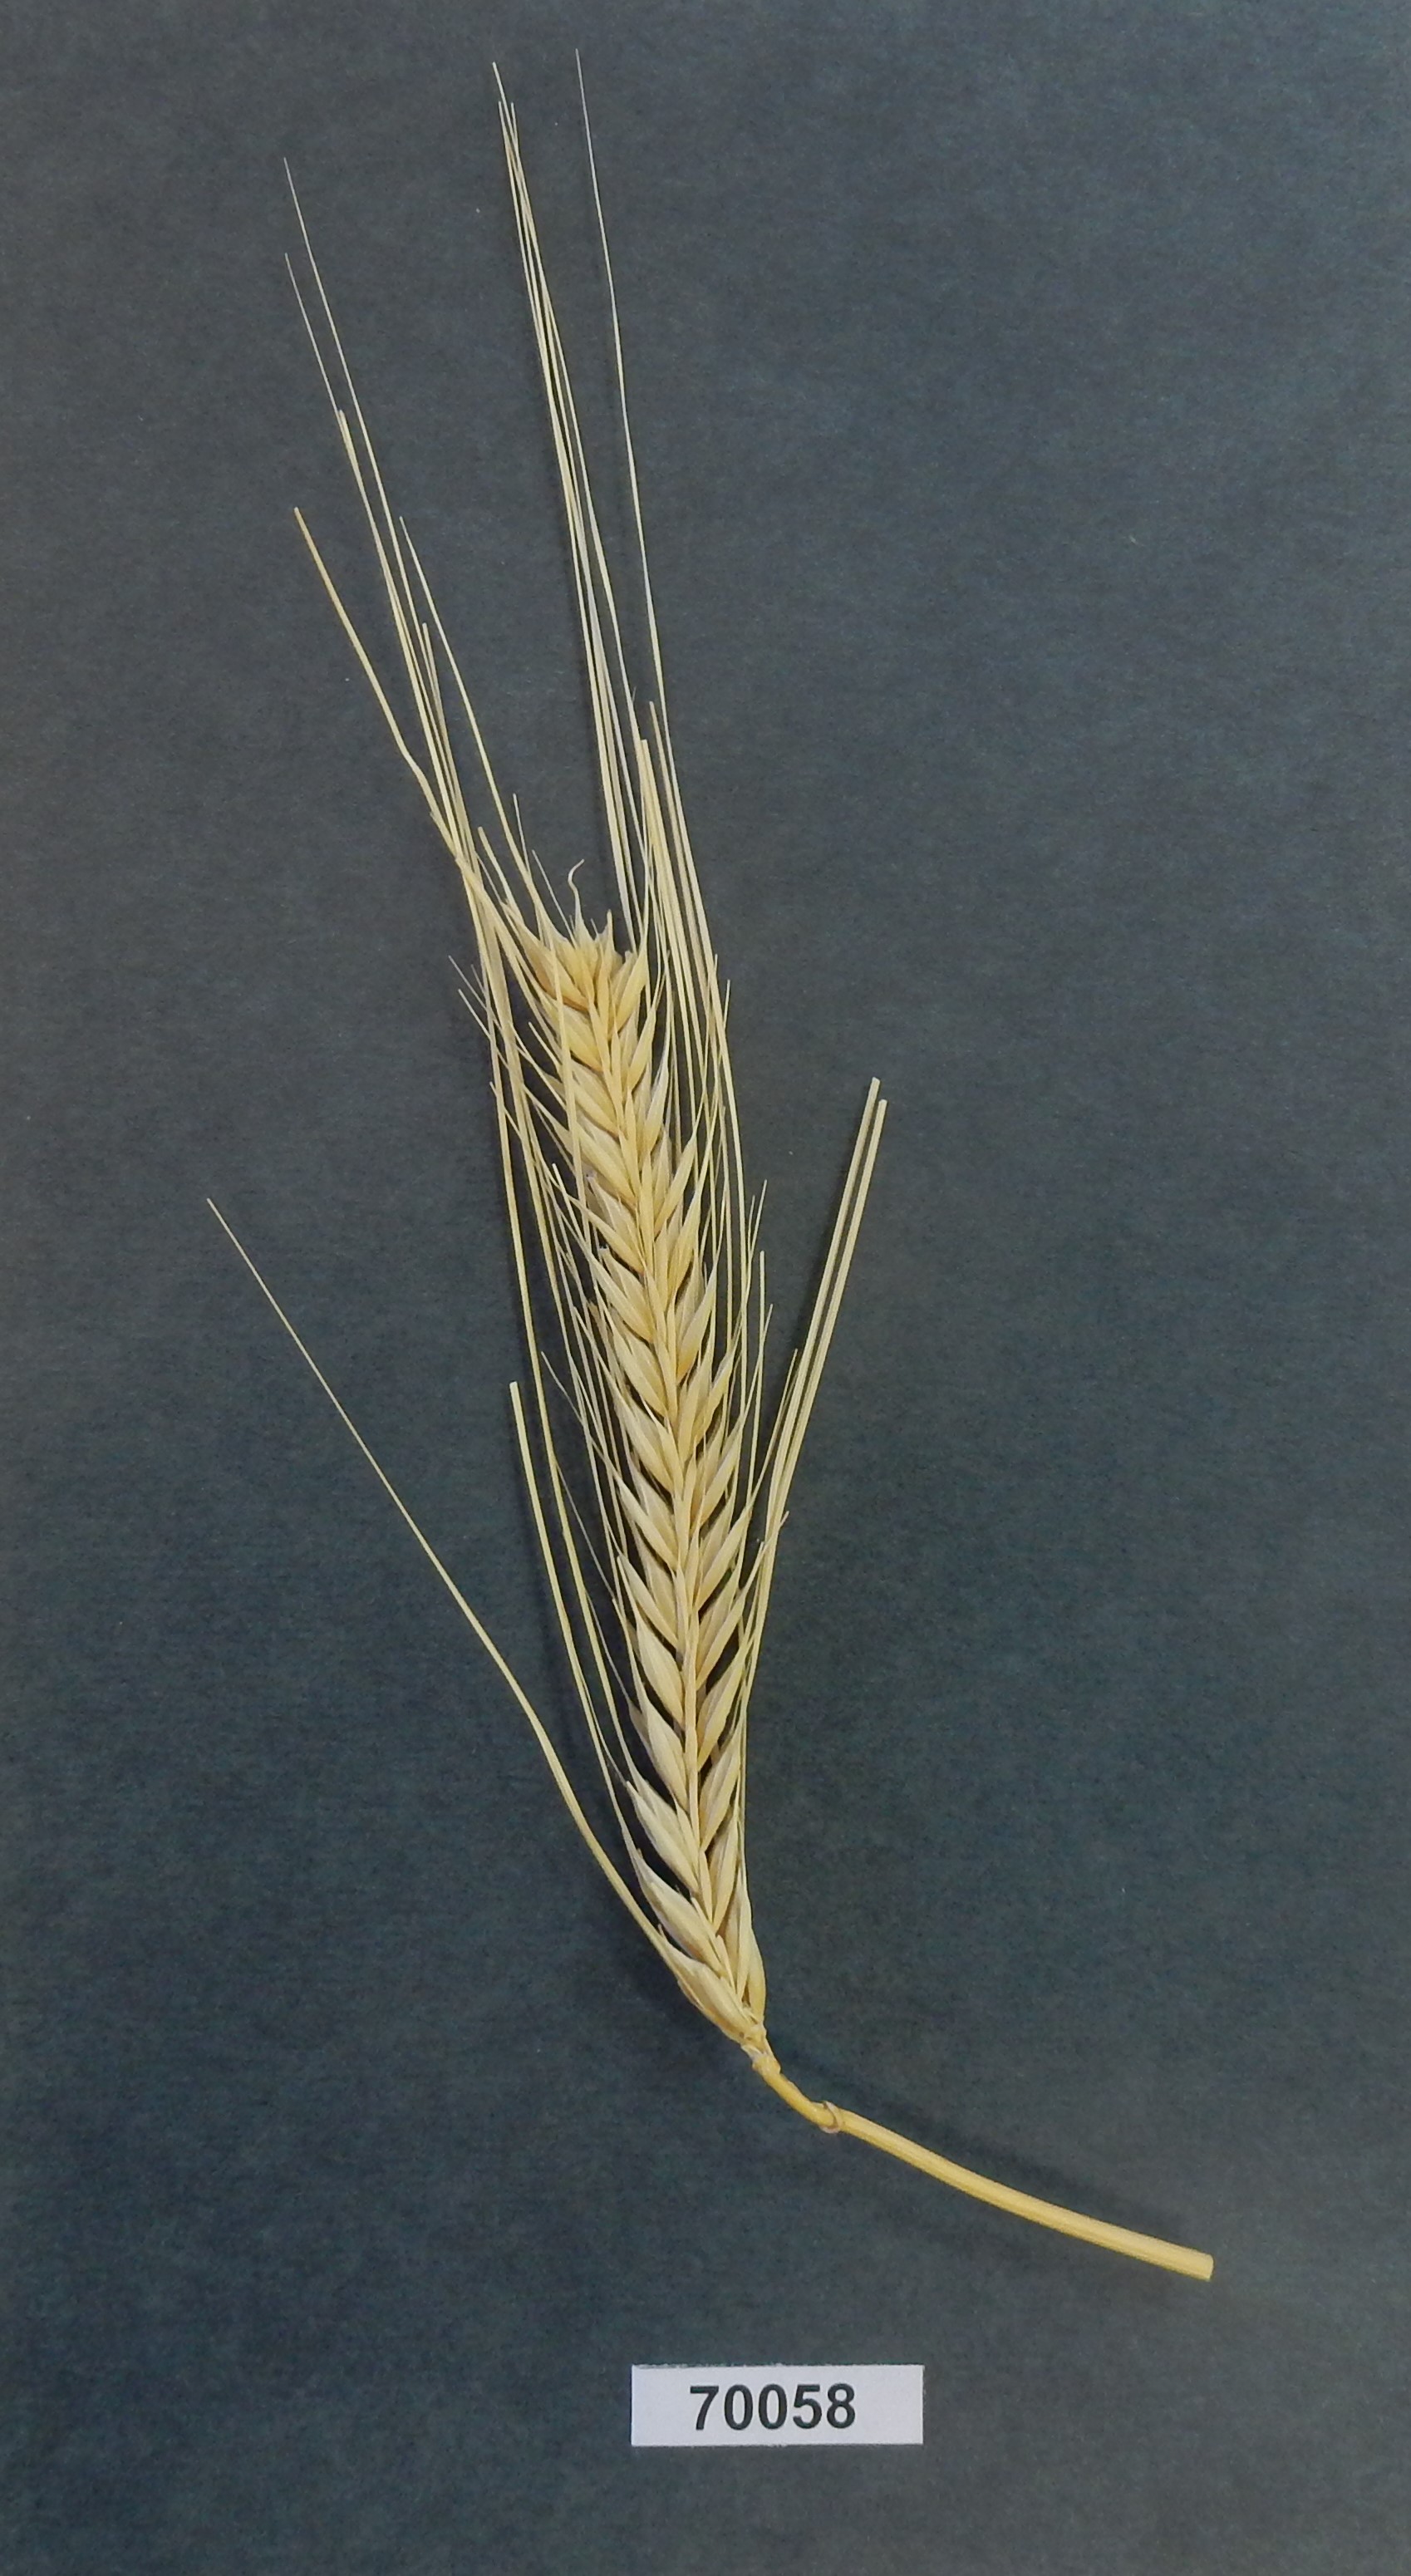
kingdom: Plantae
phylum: Tracheophyta
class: Liliopsida
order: Poales
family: Poaceae
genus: Hordeum
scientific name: Hordeum
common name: Barley
